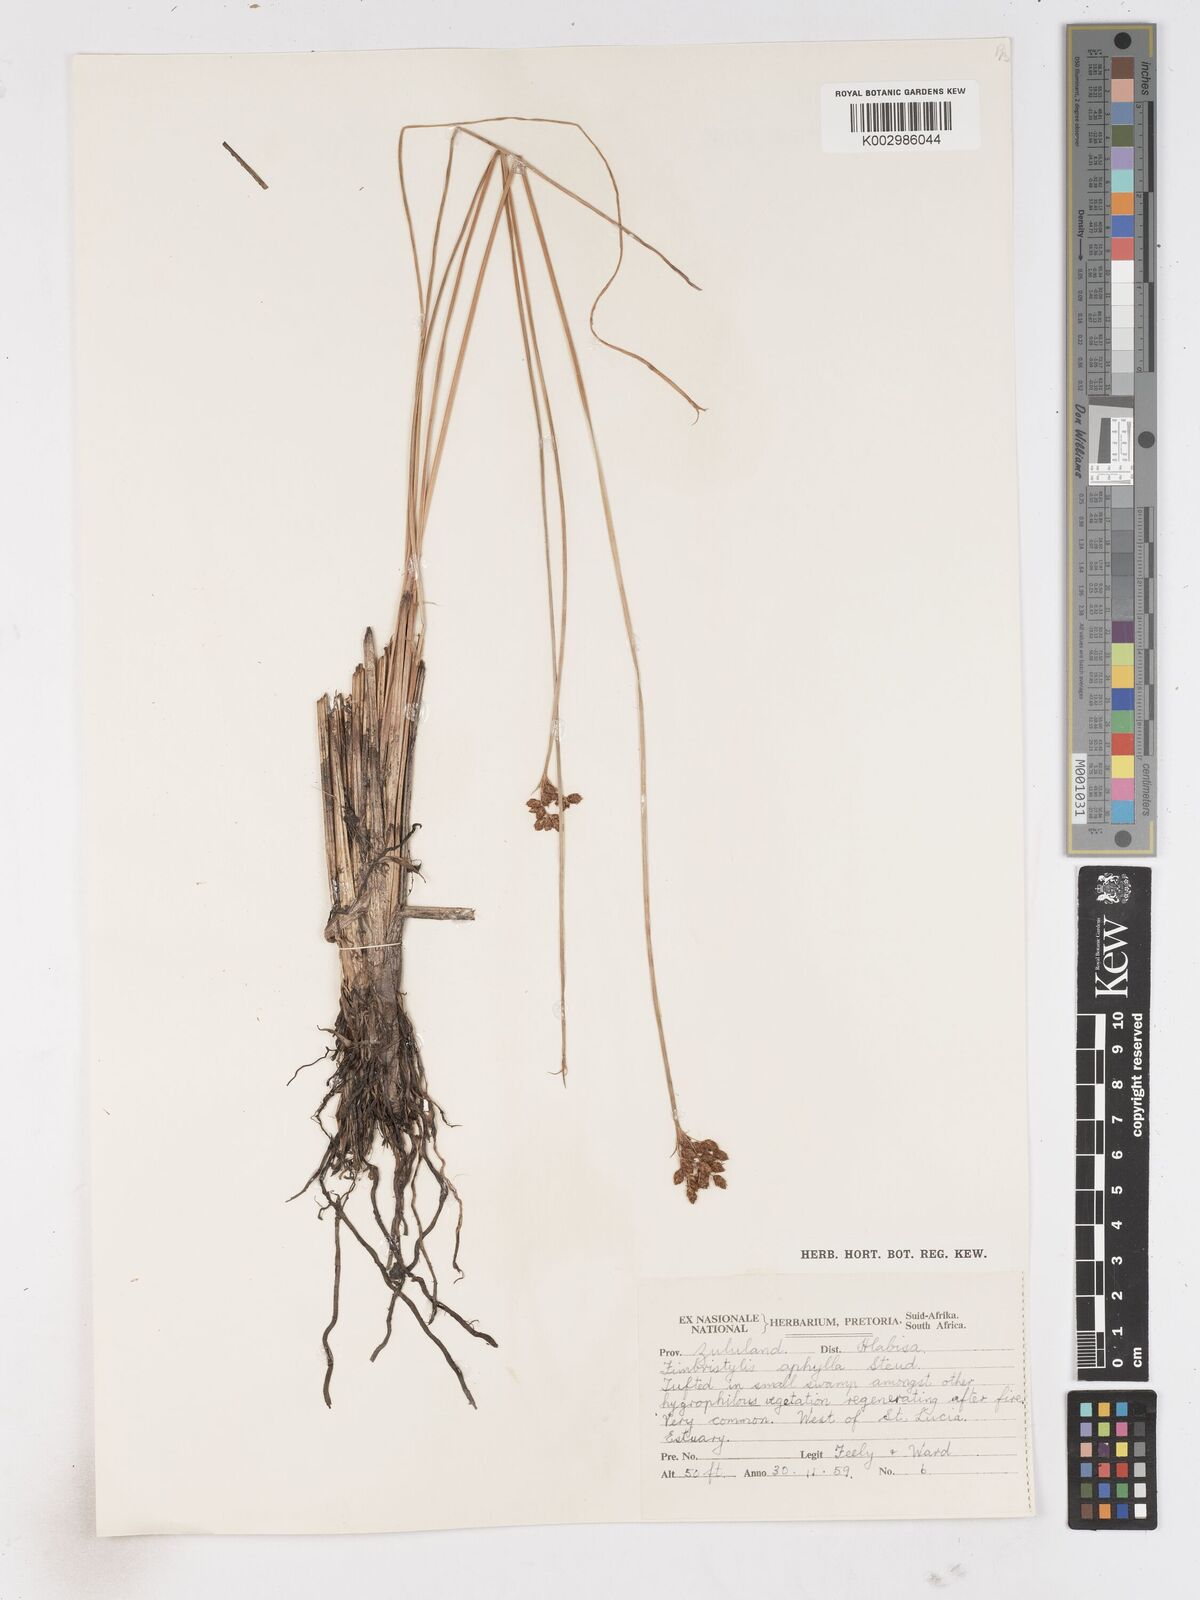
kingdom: Plantae
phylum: Tracheophyta
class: Liliopsida
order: Poales
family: Cyperaceae
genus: Fimbristylis
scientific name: Fimbristylis
